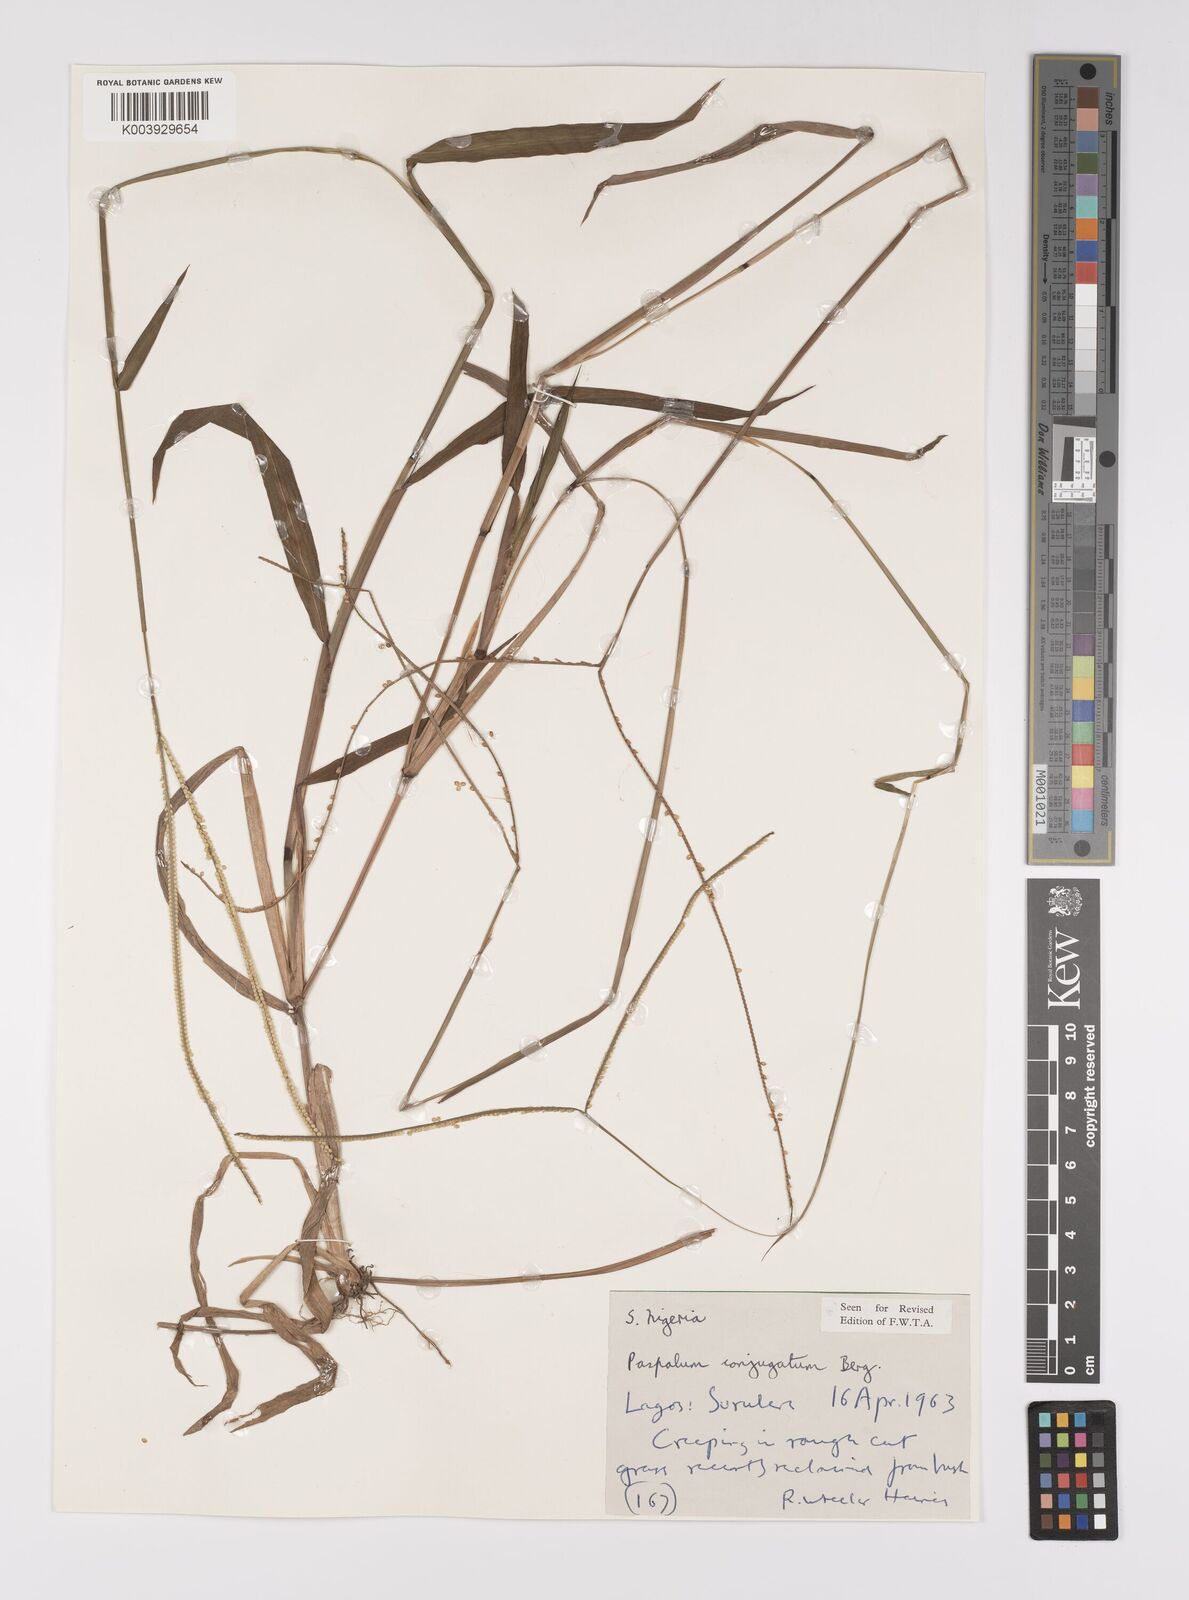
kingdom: Plantae
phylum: Tracheophyta
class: Liliopsida
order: Poales
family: Poaceae
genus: Paspalum
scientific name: Paspalum conjugatum
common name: Hilograss
